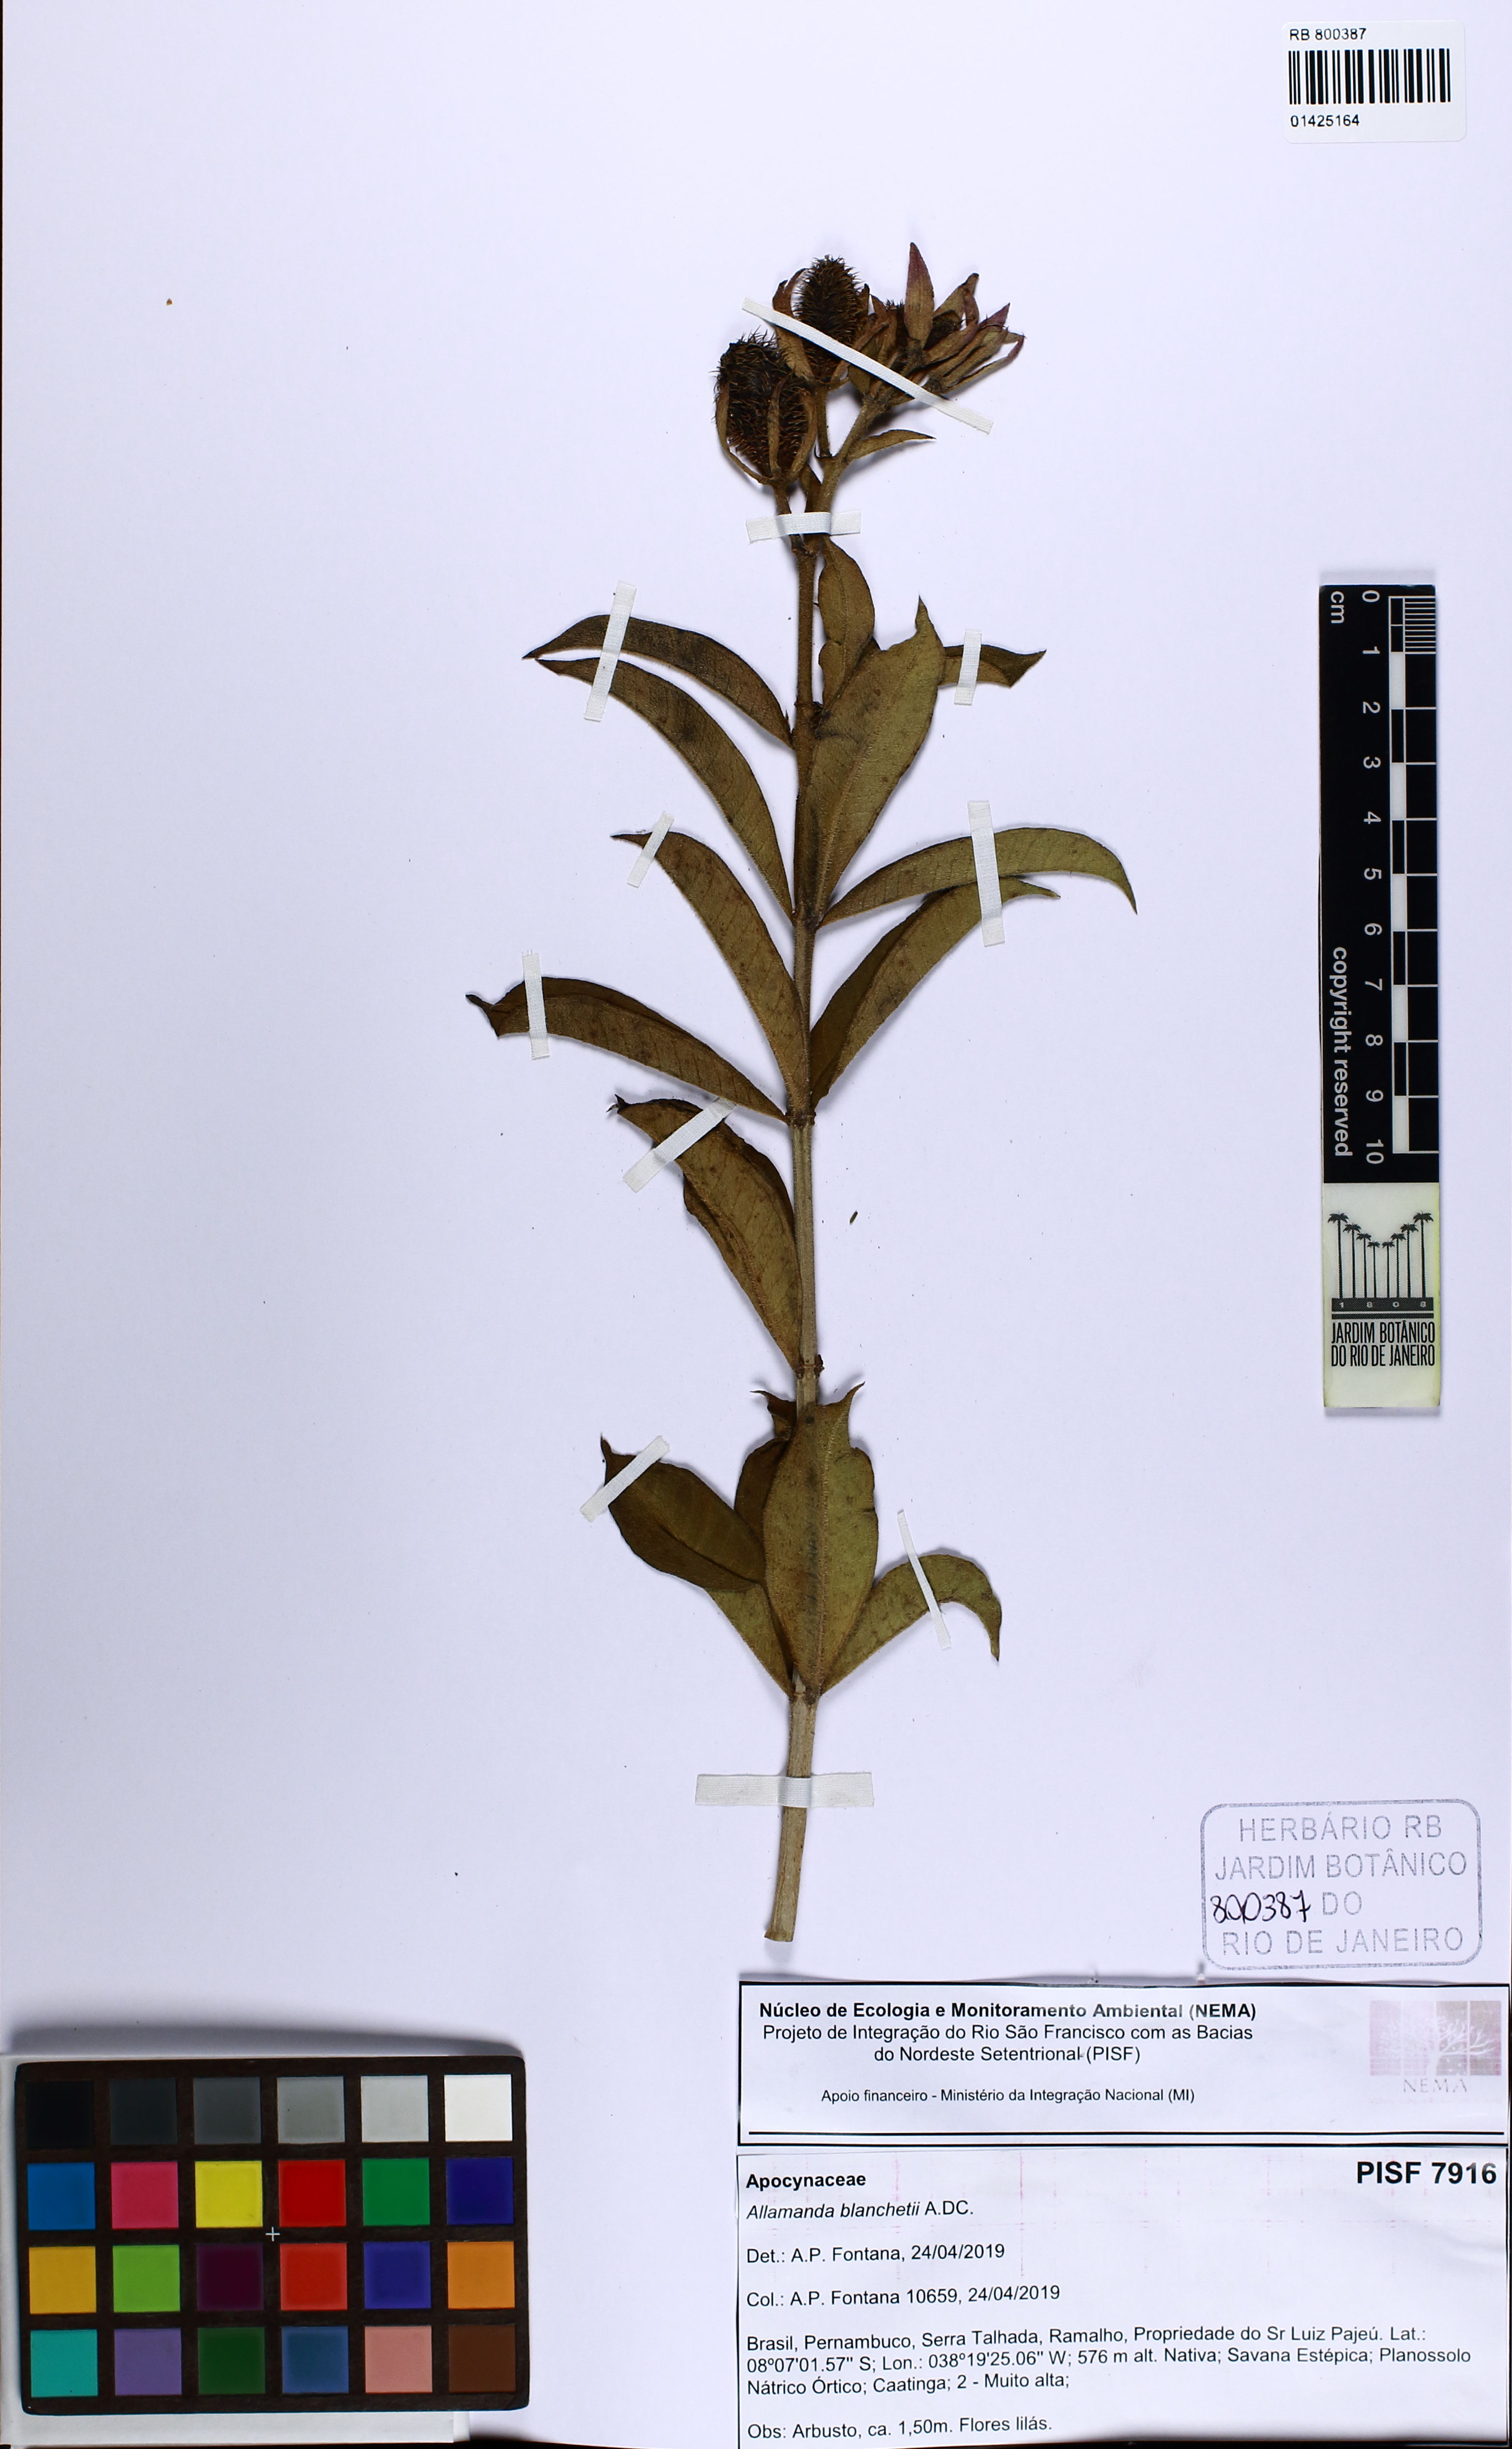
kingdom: Plantae
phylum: Tracheophyta
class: Magnoliopsida
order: Gentianales
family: Apocynaceae
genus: Allamanda
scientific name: Allamanda blanchetii
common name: Purple allamanda
